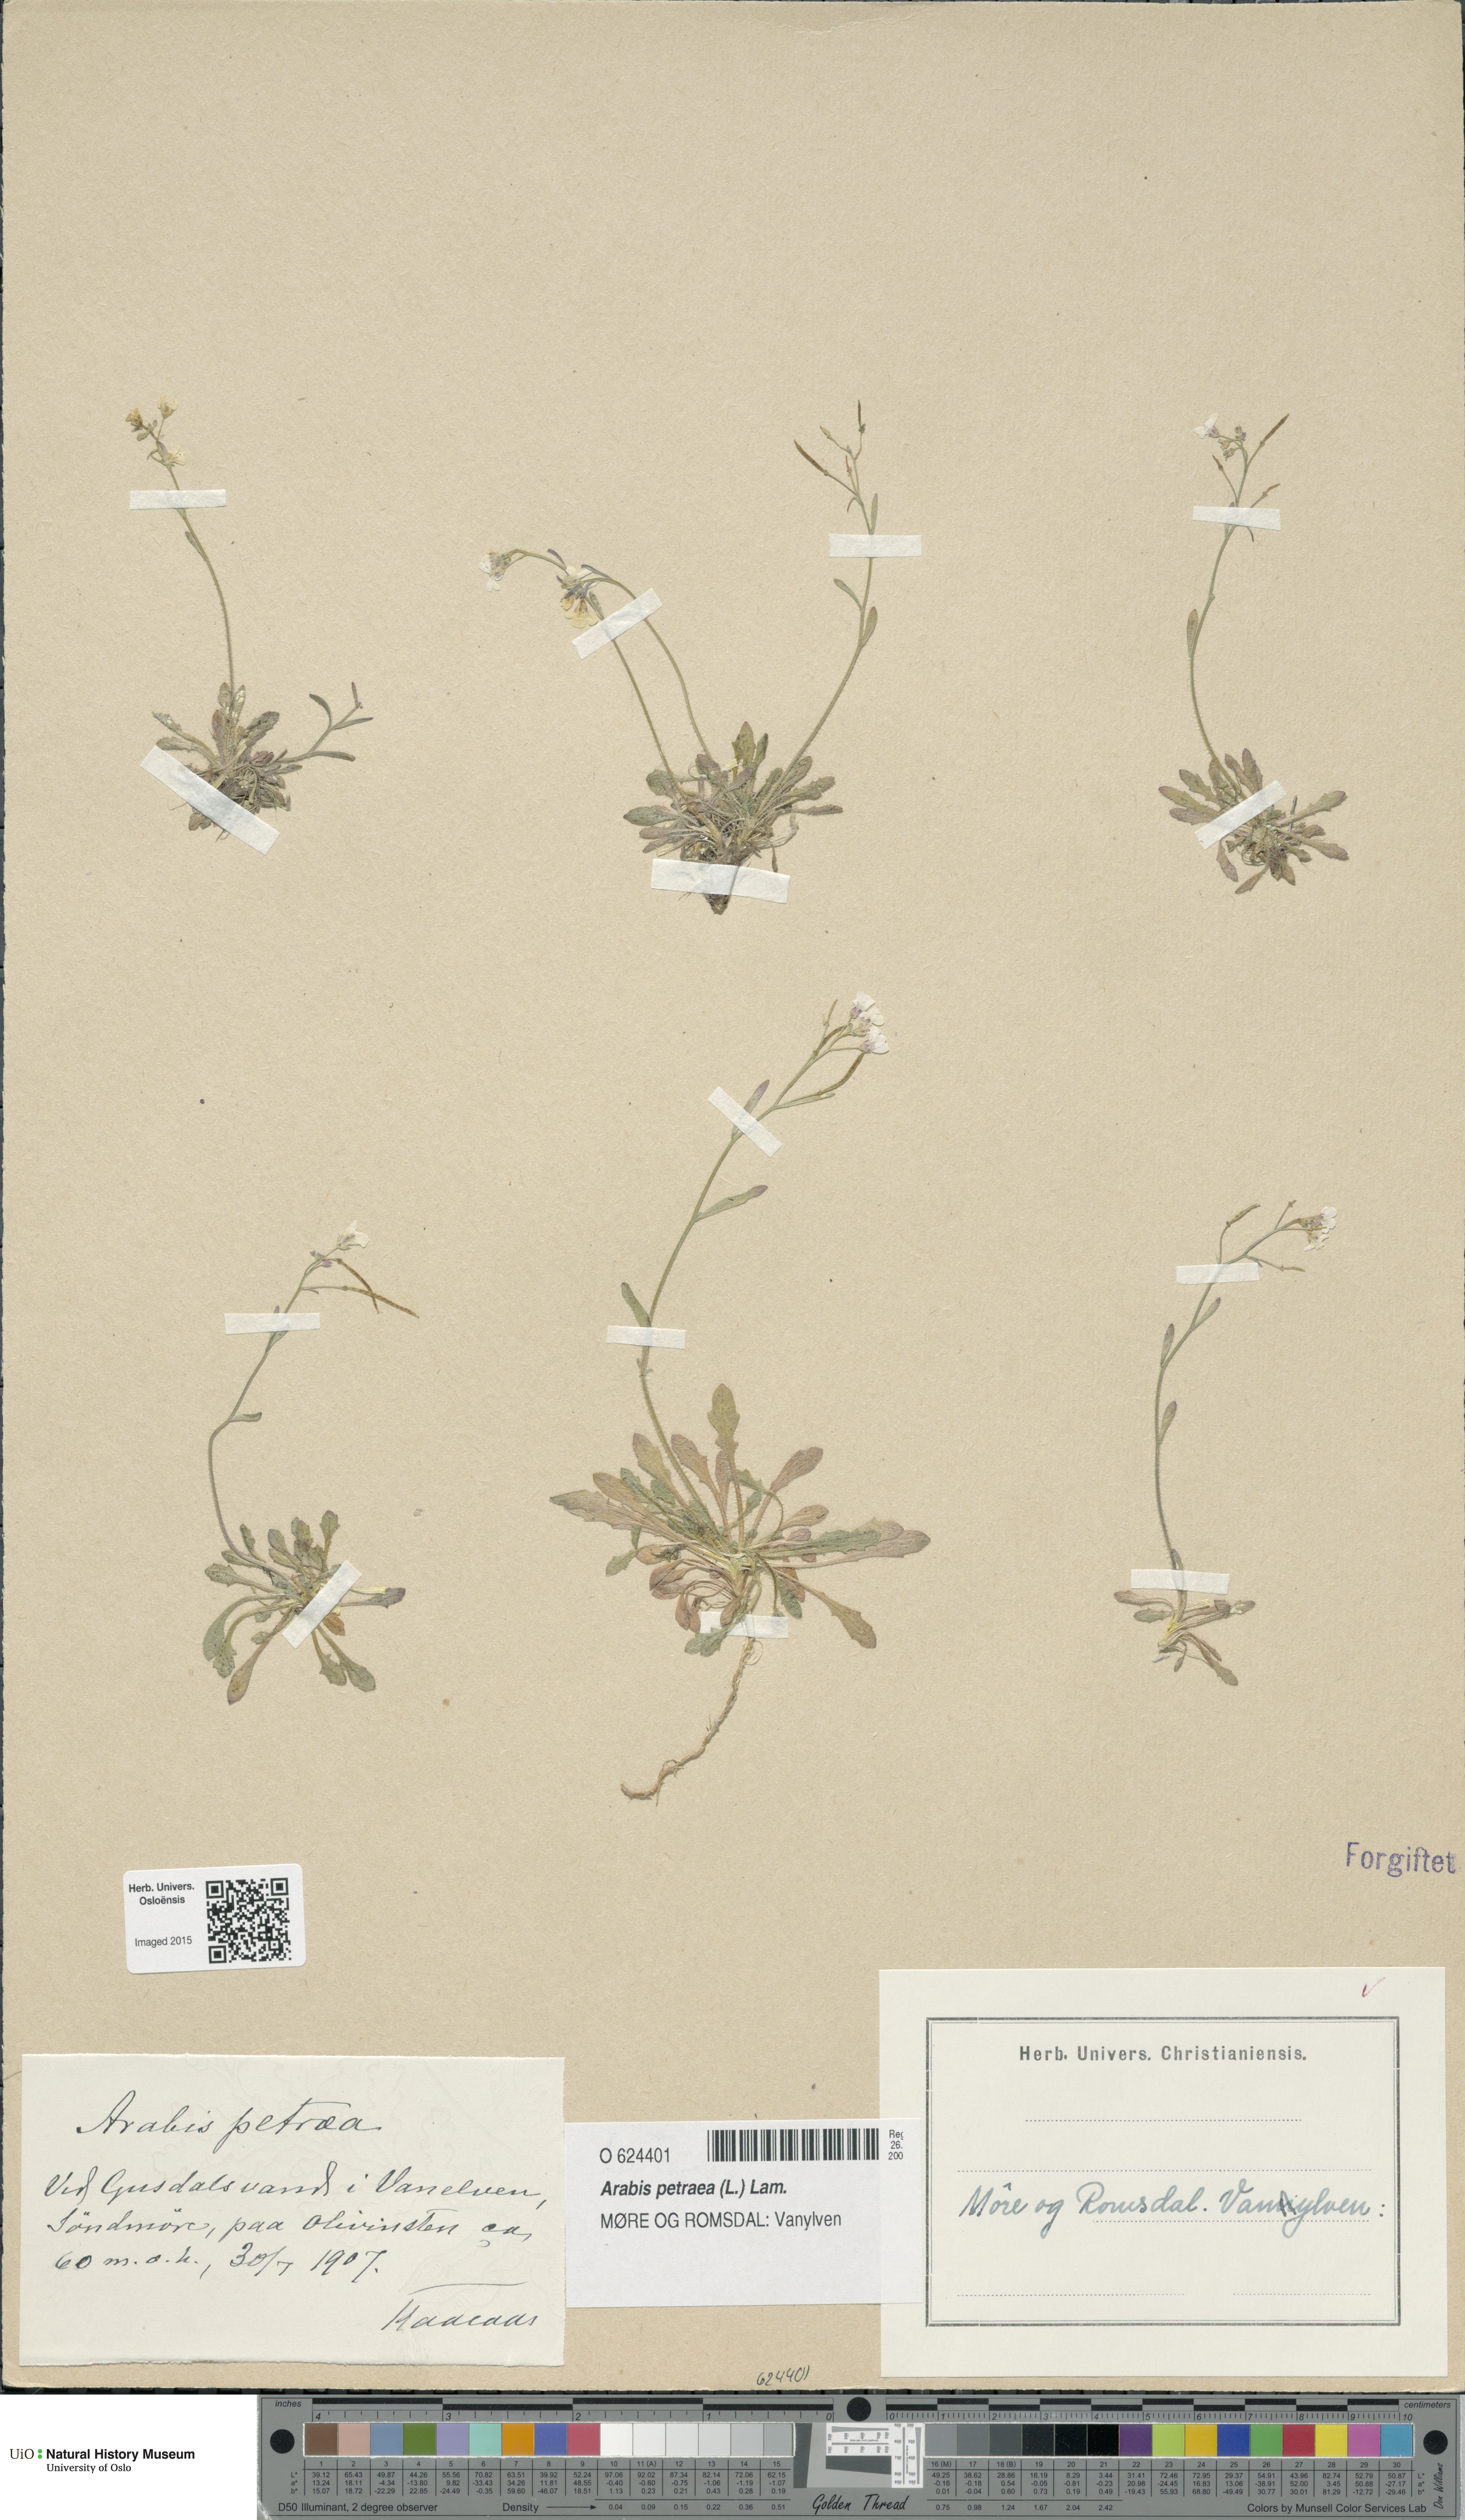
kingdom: Plantae
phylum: Tracheophyta
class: Magnoliopsida
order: Brassicales
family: Brassicaceae
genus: Arabidopsis
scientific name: Arabidopsis petraea
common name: Northern rock-cress
